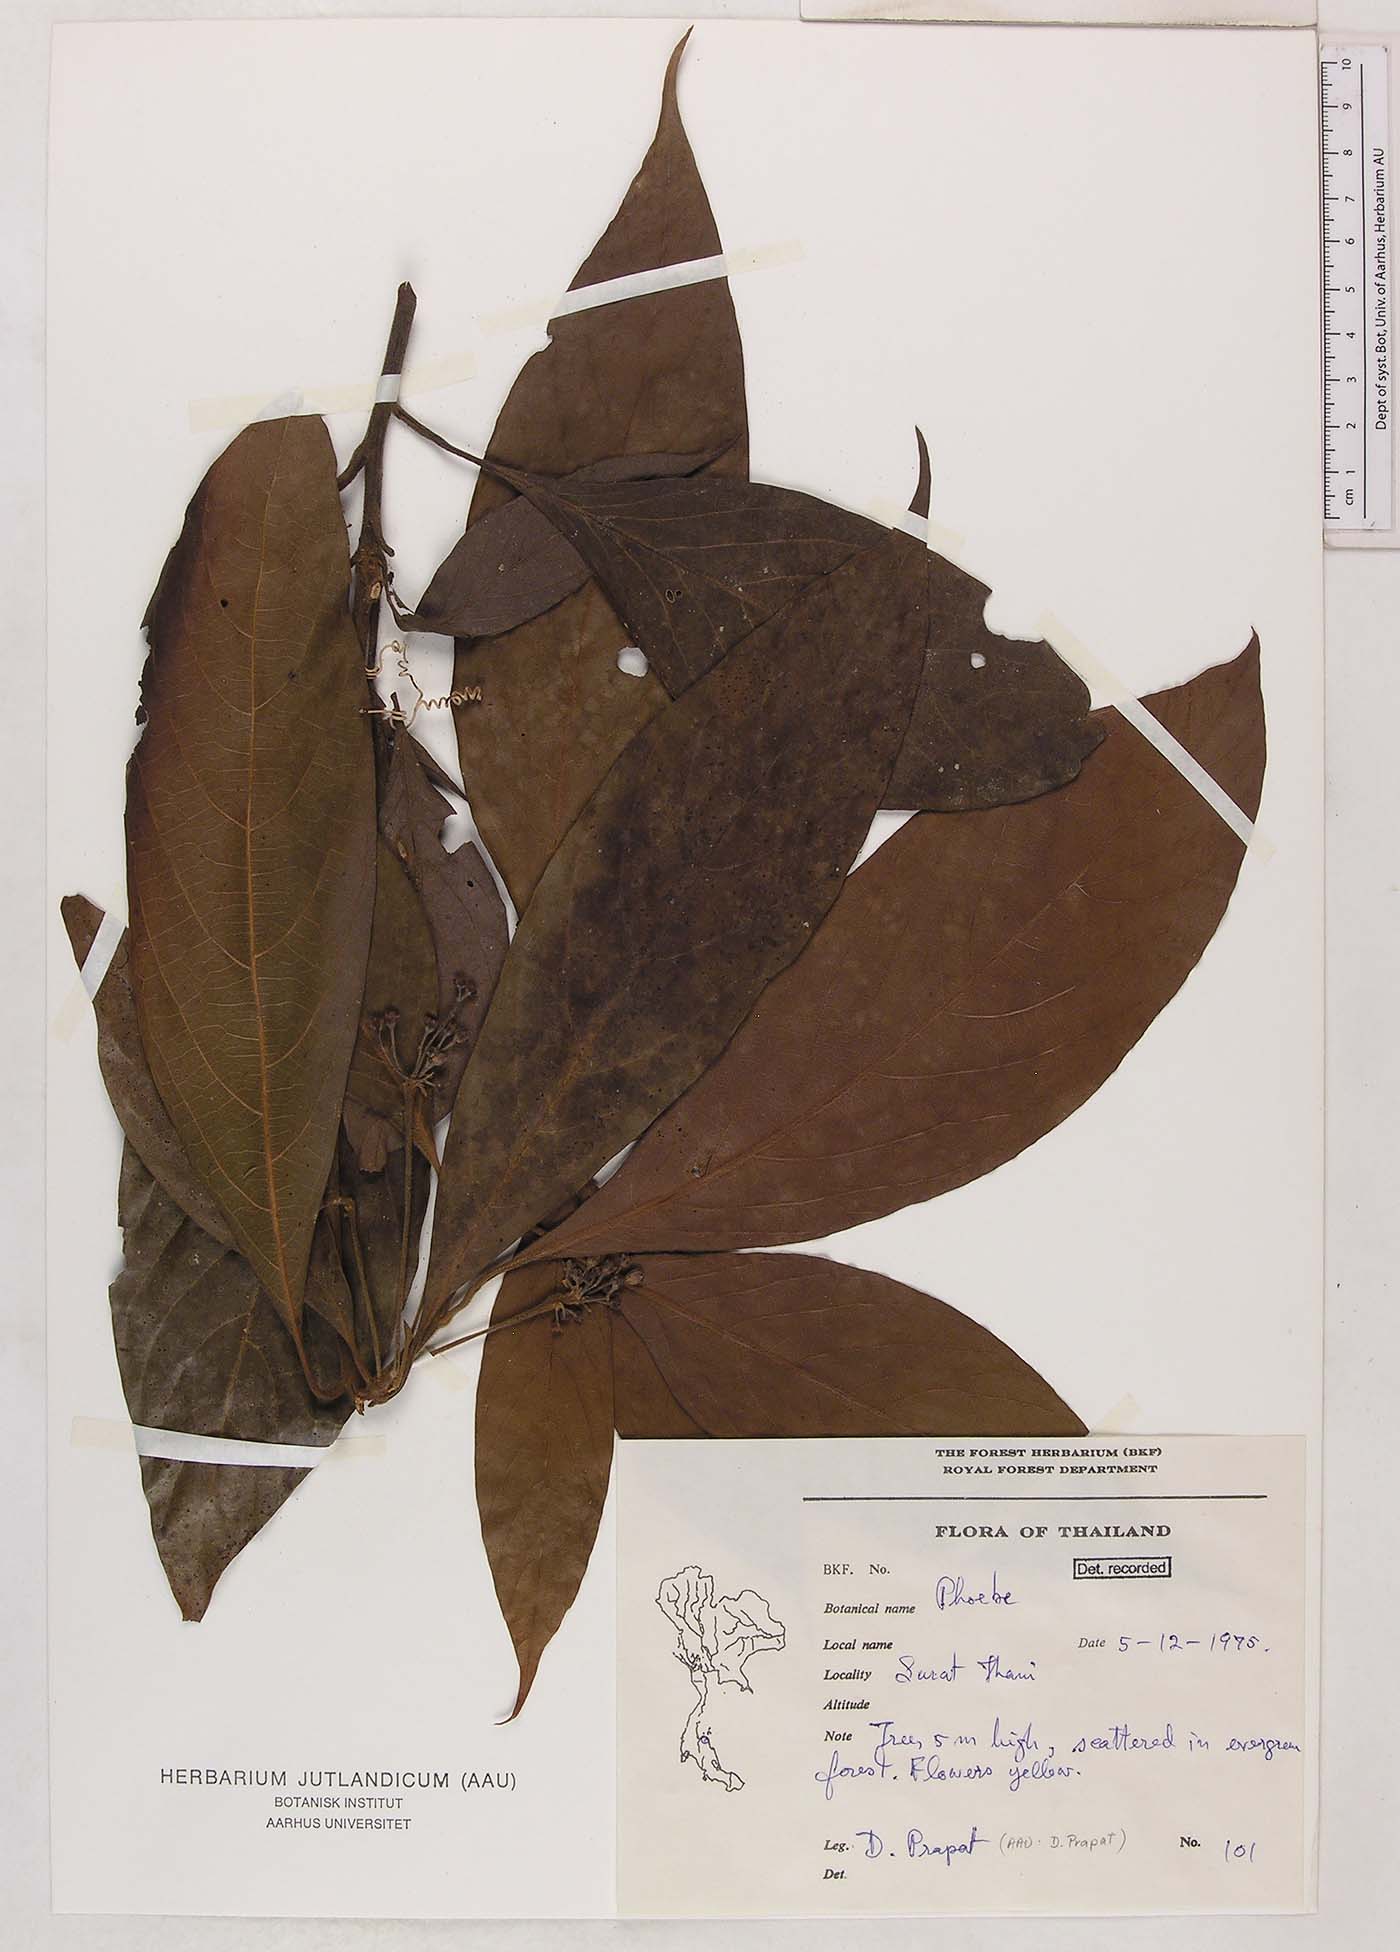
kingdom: Plantae
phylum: Tracheophyta
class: Magnoliopsida
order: Laurales
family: Lauraceae
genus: Phoebe
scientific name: Phoebe
